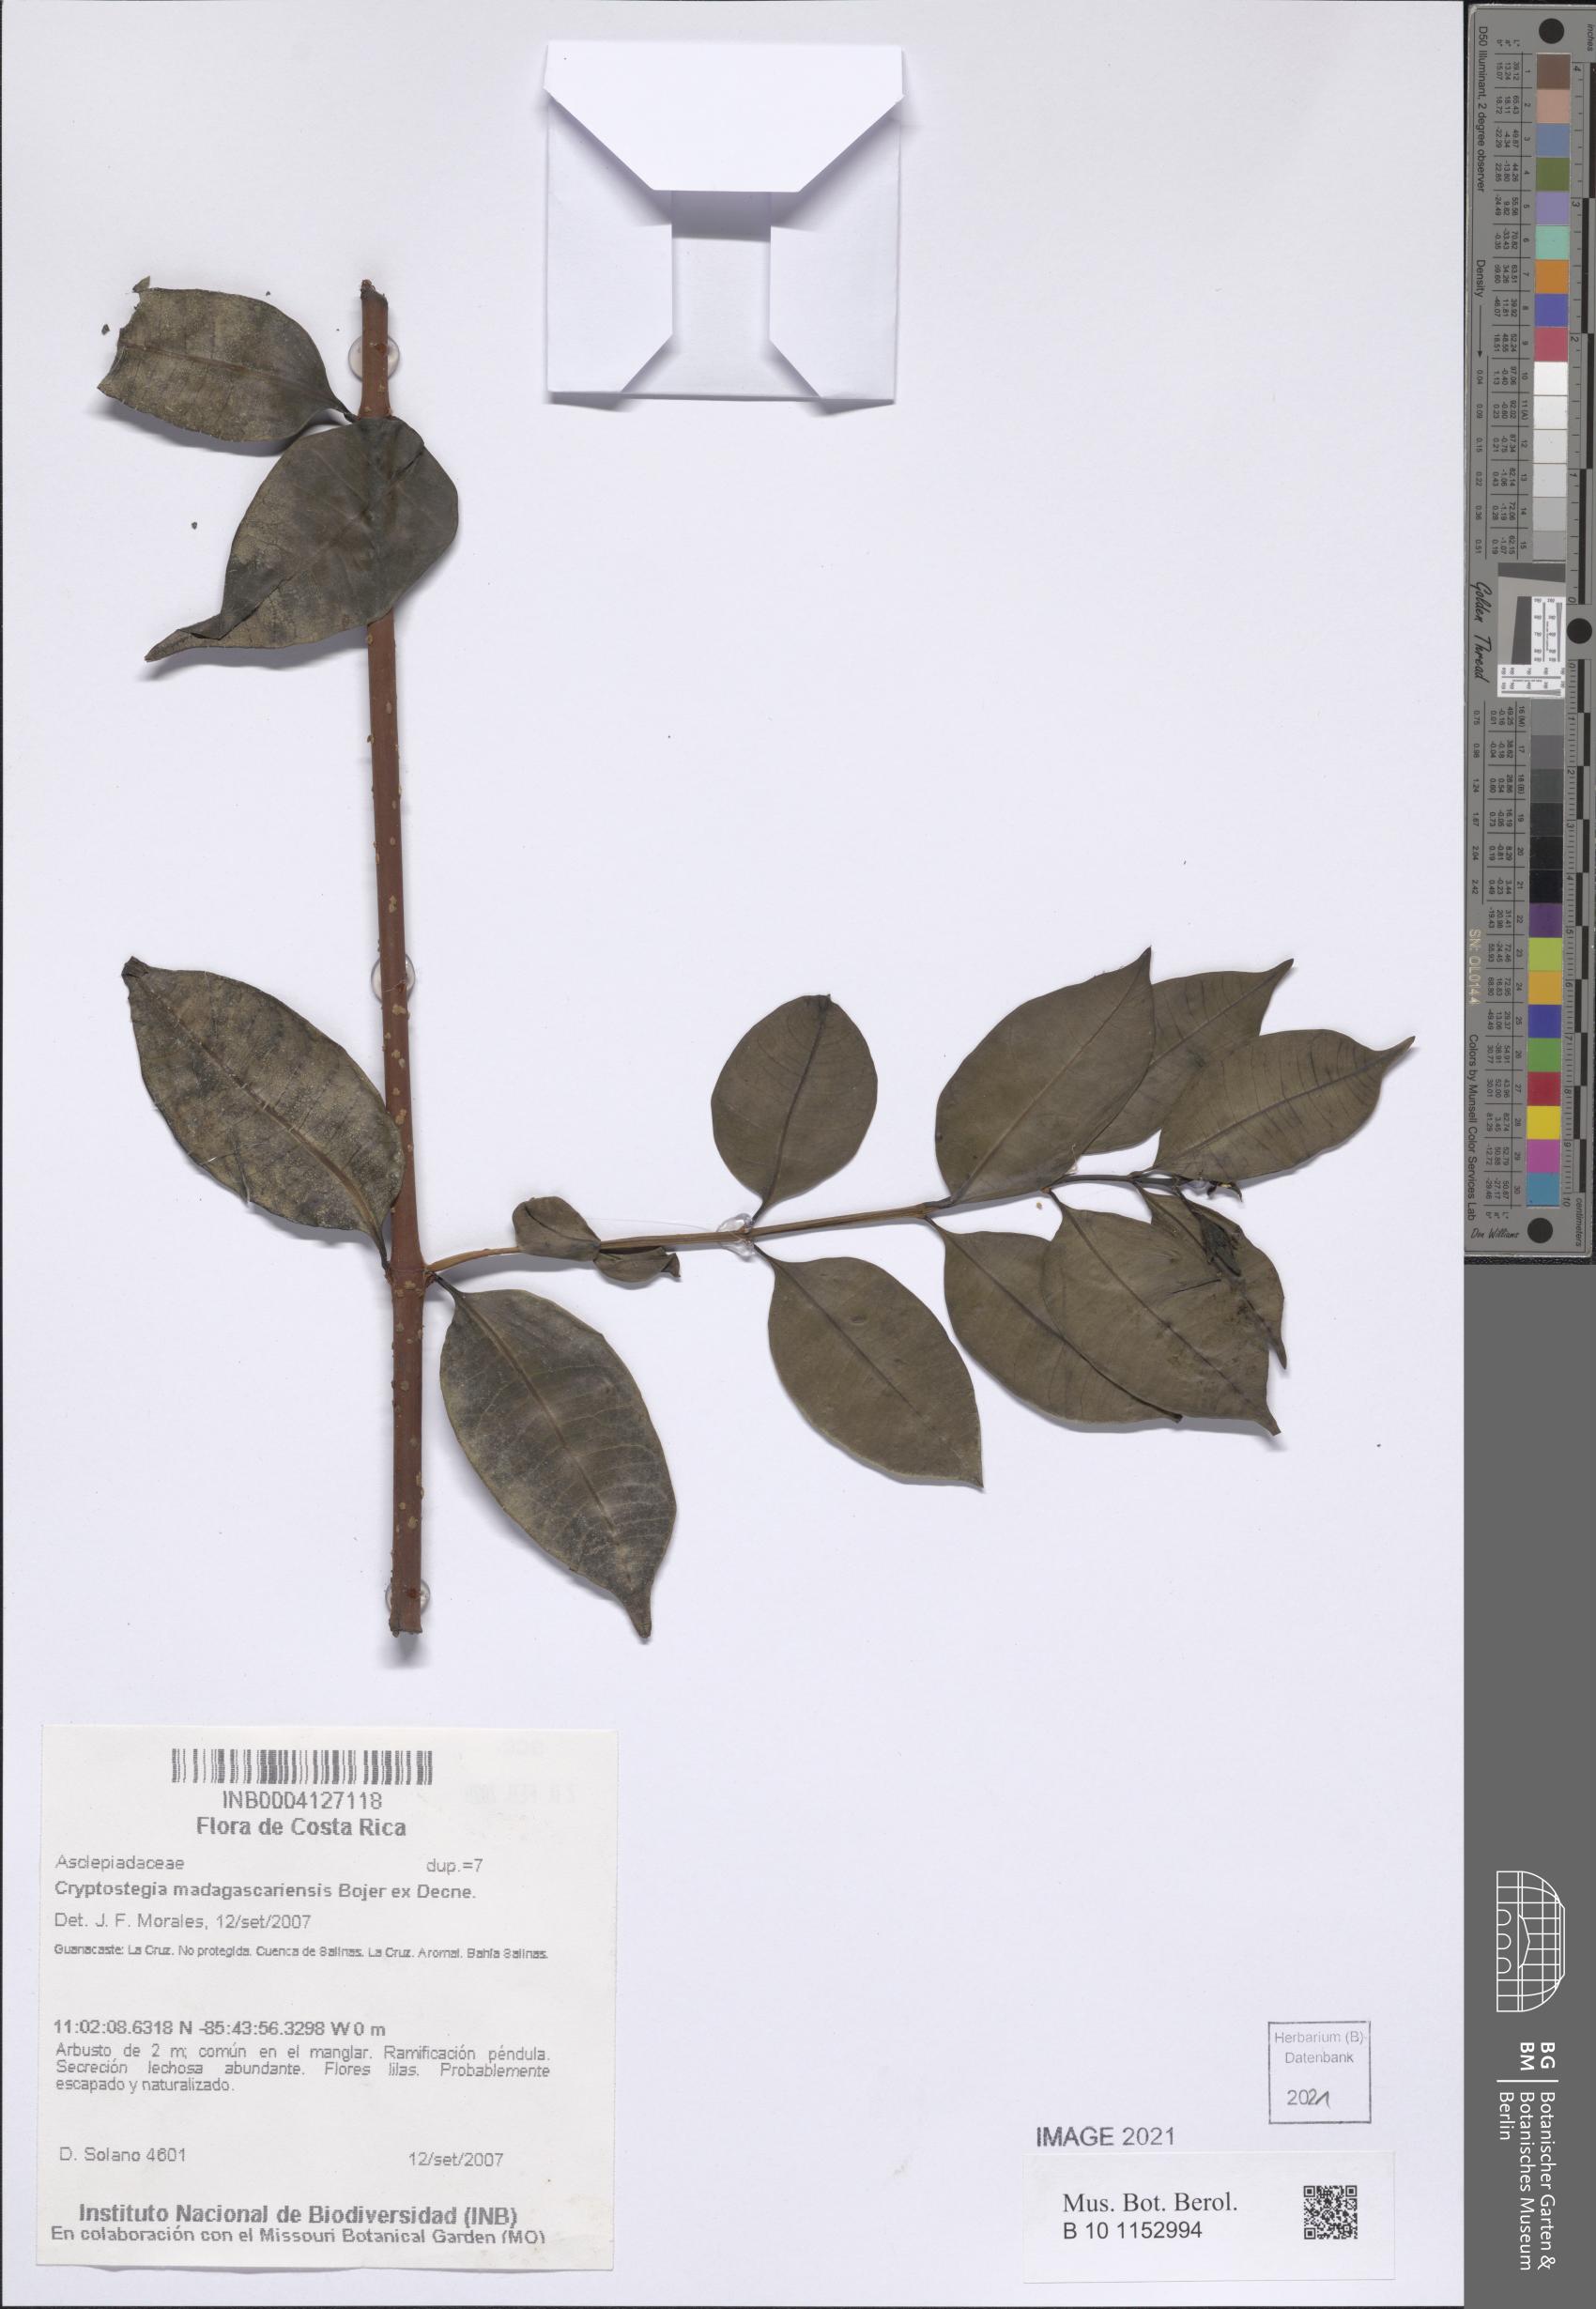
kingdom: Plantae
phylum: Tracheophyta
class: Magnoliopsida
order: Gentianales
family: Apocynaceae
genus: Cryptostegia
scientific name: Cryptostegia madagascariensis
